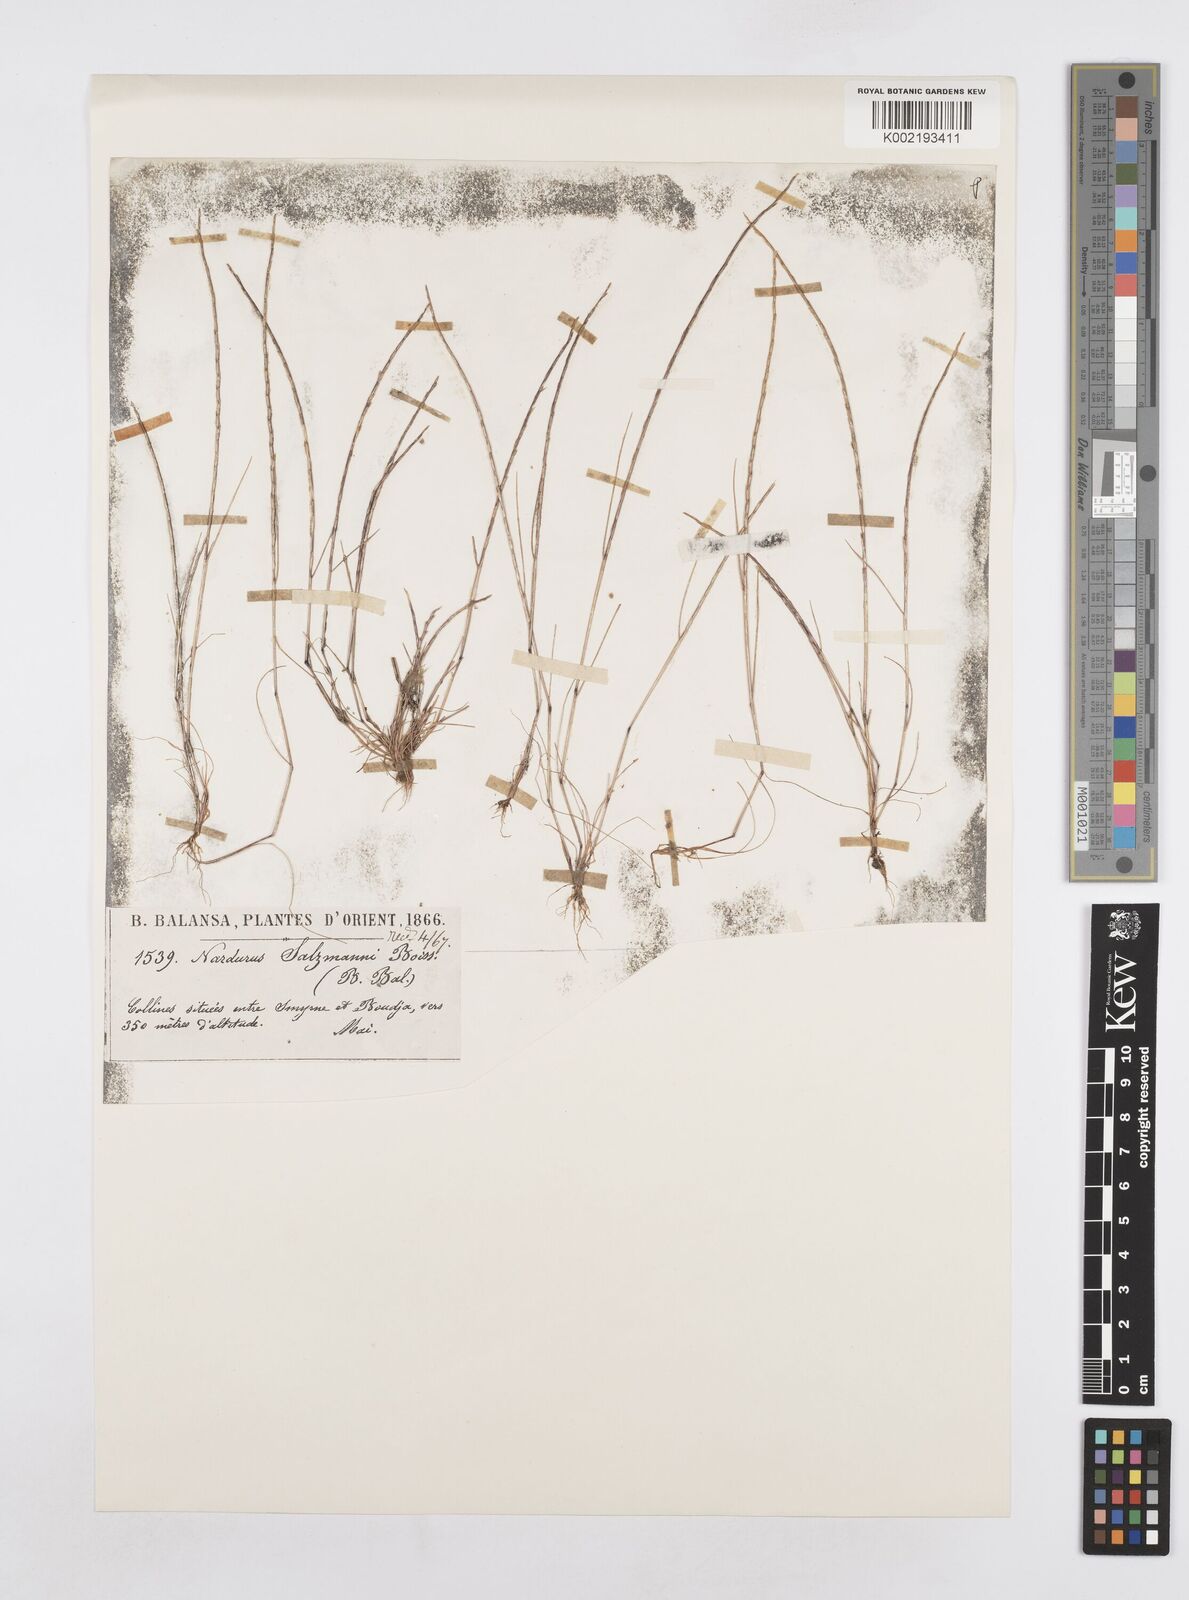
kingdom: Plantae
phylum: Tracheophyta
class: Liliopsida
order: Poales
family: Poaceae
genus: Festuca
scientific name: Festuca salzmannii
